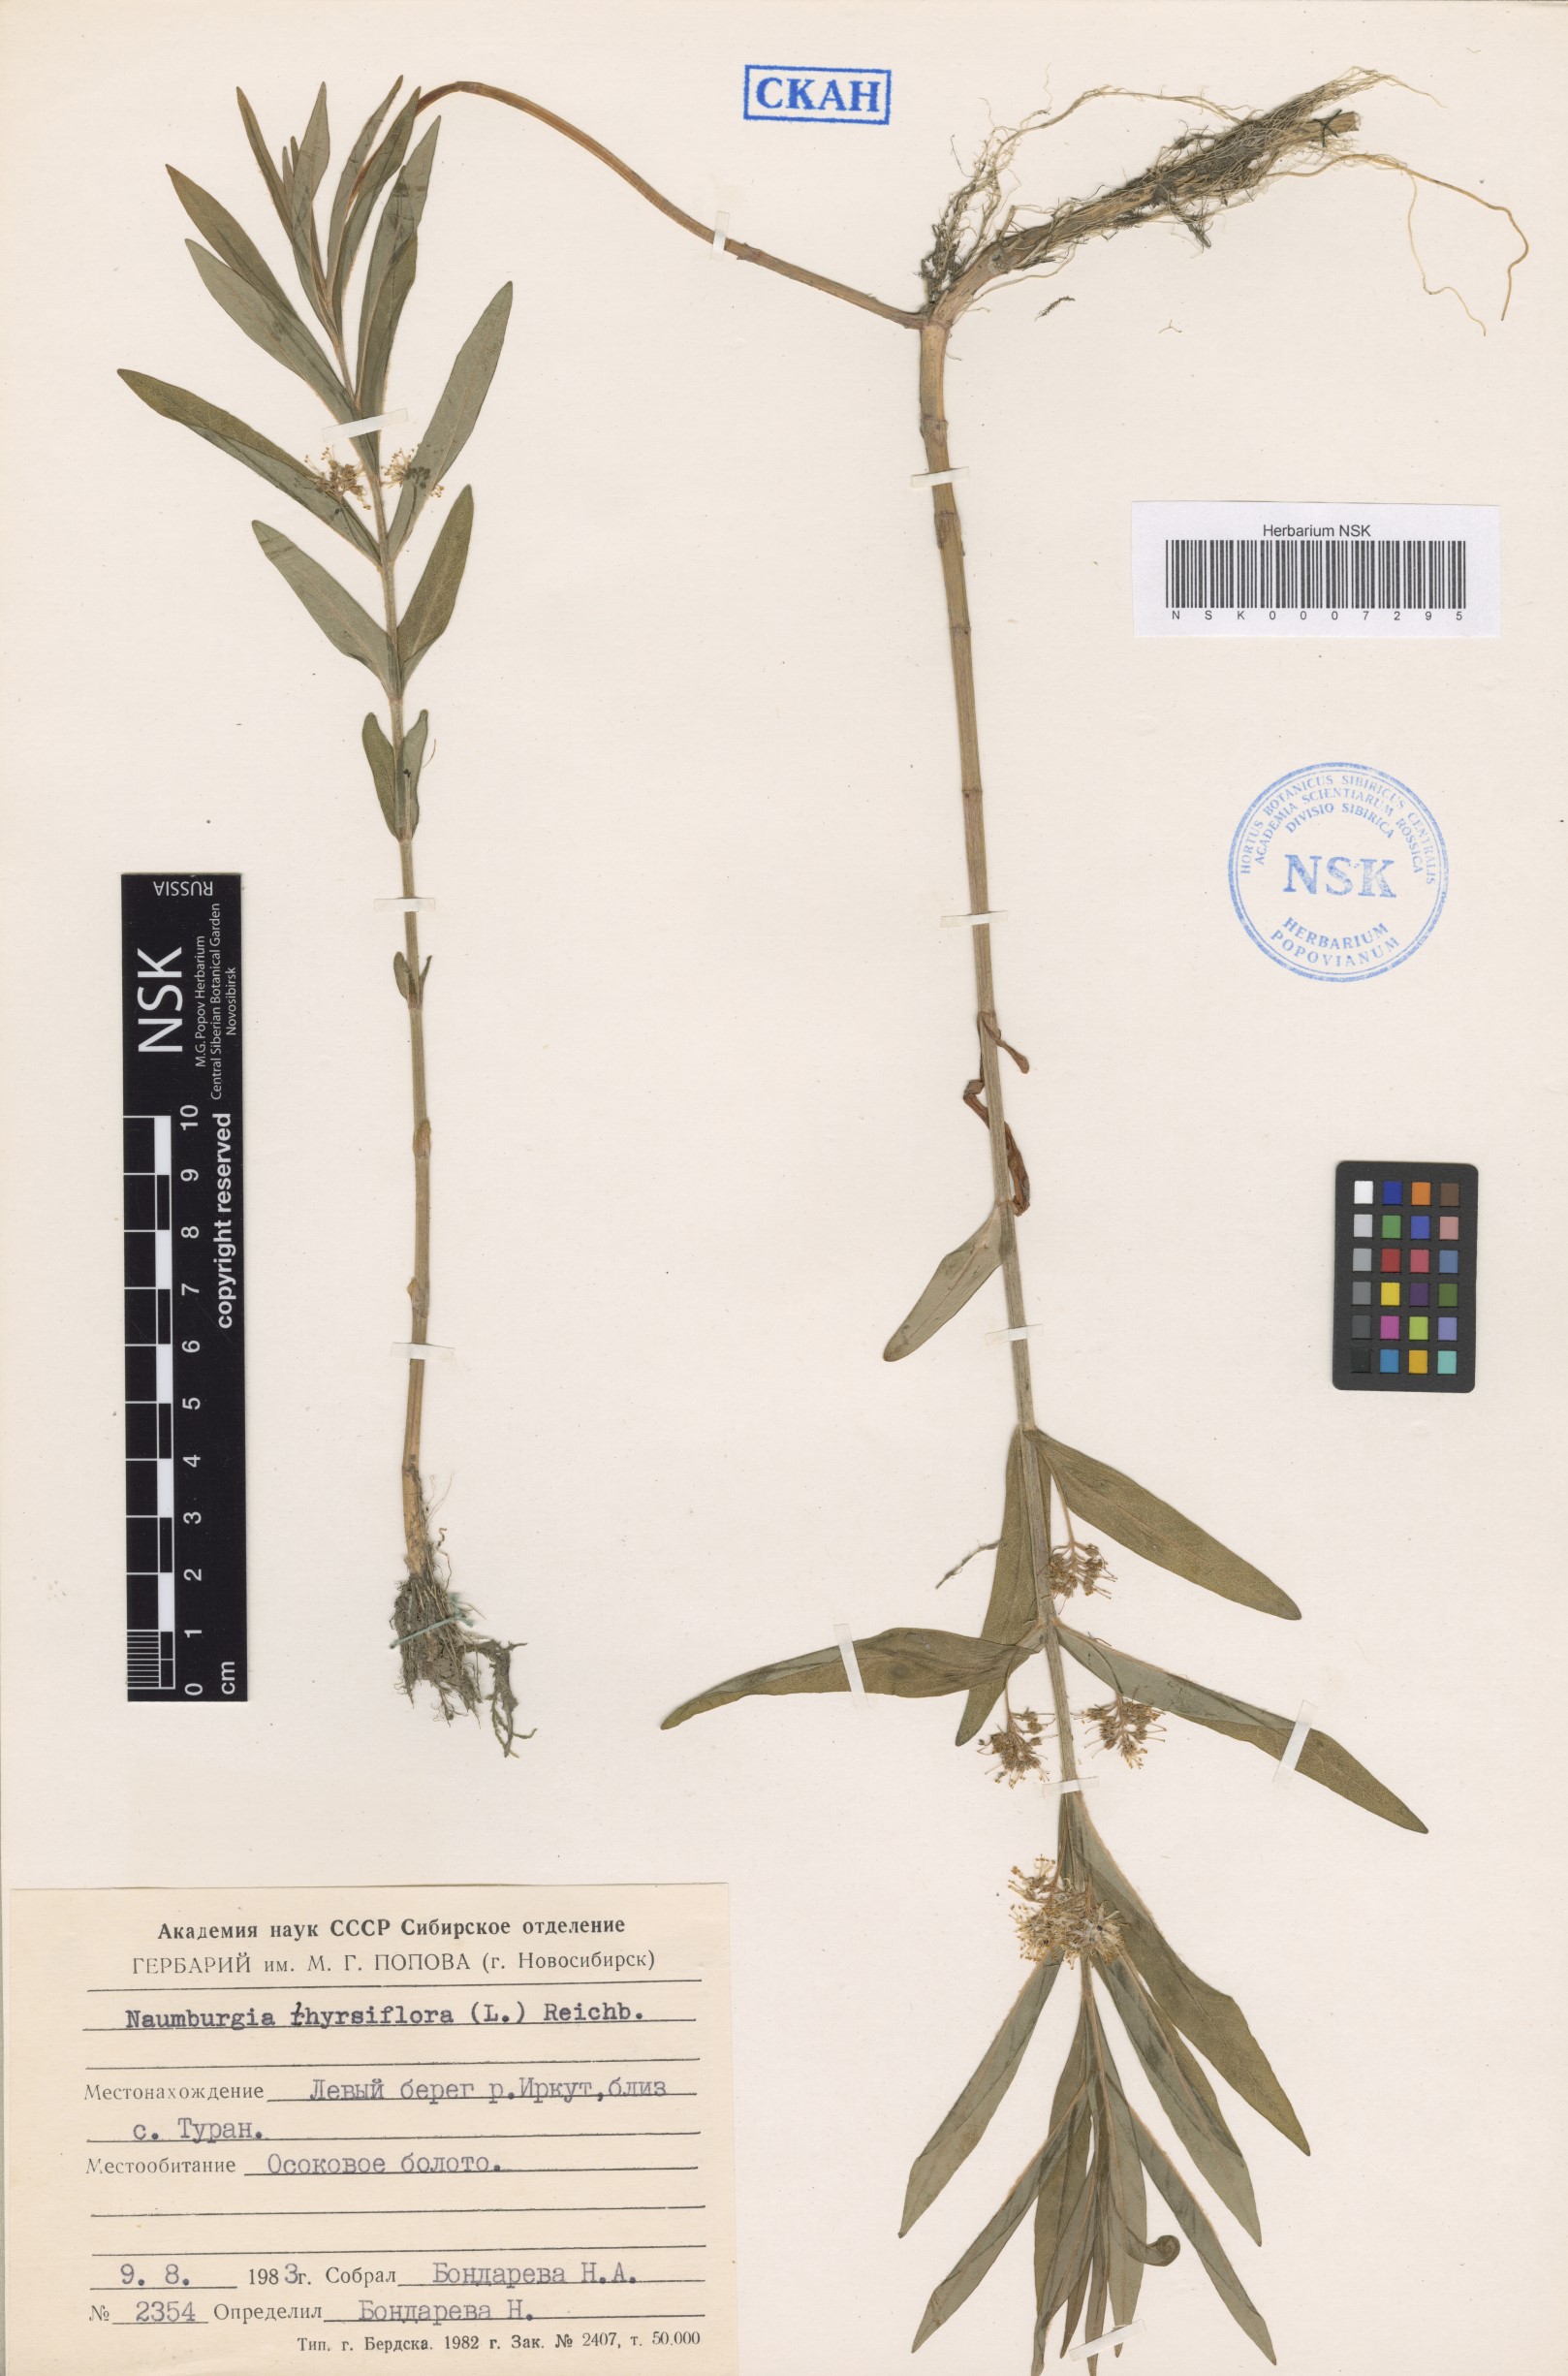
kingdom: Plantae
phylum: Tracheophyta
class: Magnoliopsida
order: Ericales
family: Primulaceae
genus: Lysimachia
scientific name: Lysimachia thyrsiflora
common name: Tufted loosestrife
